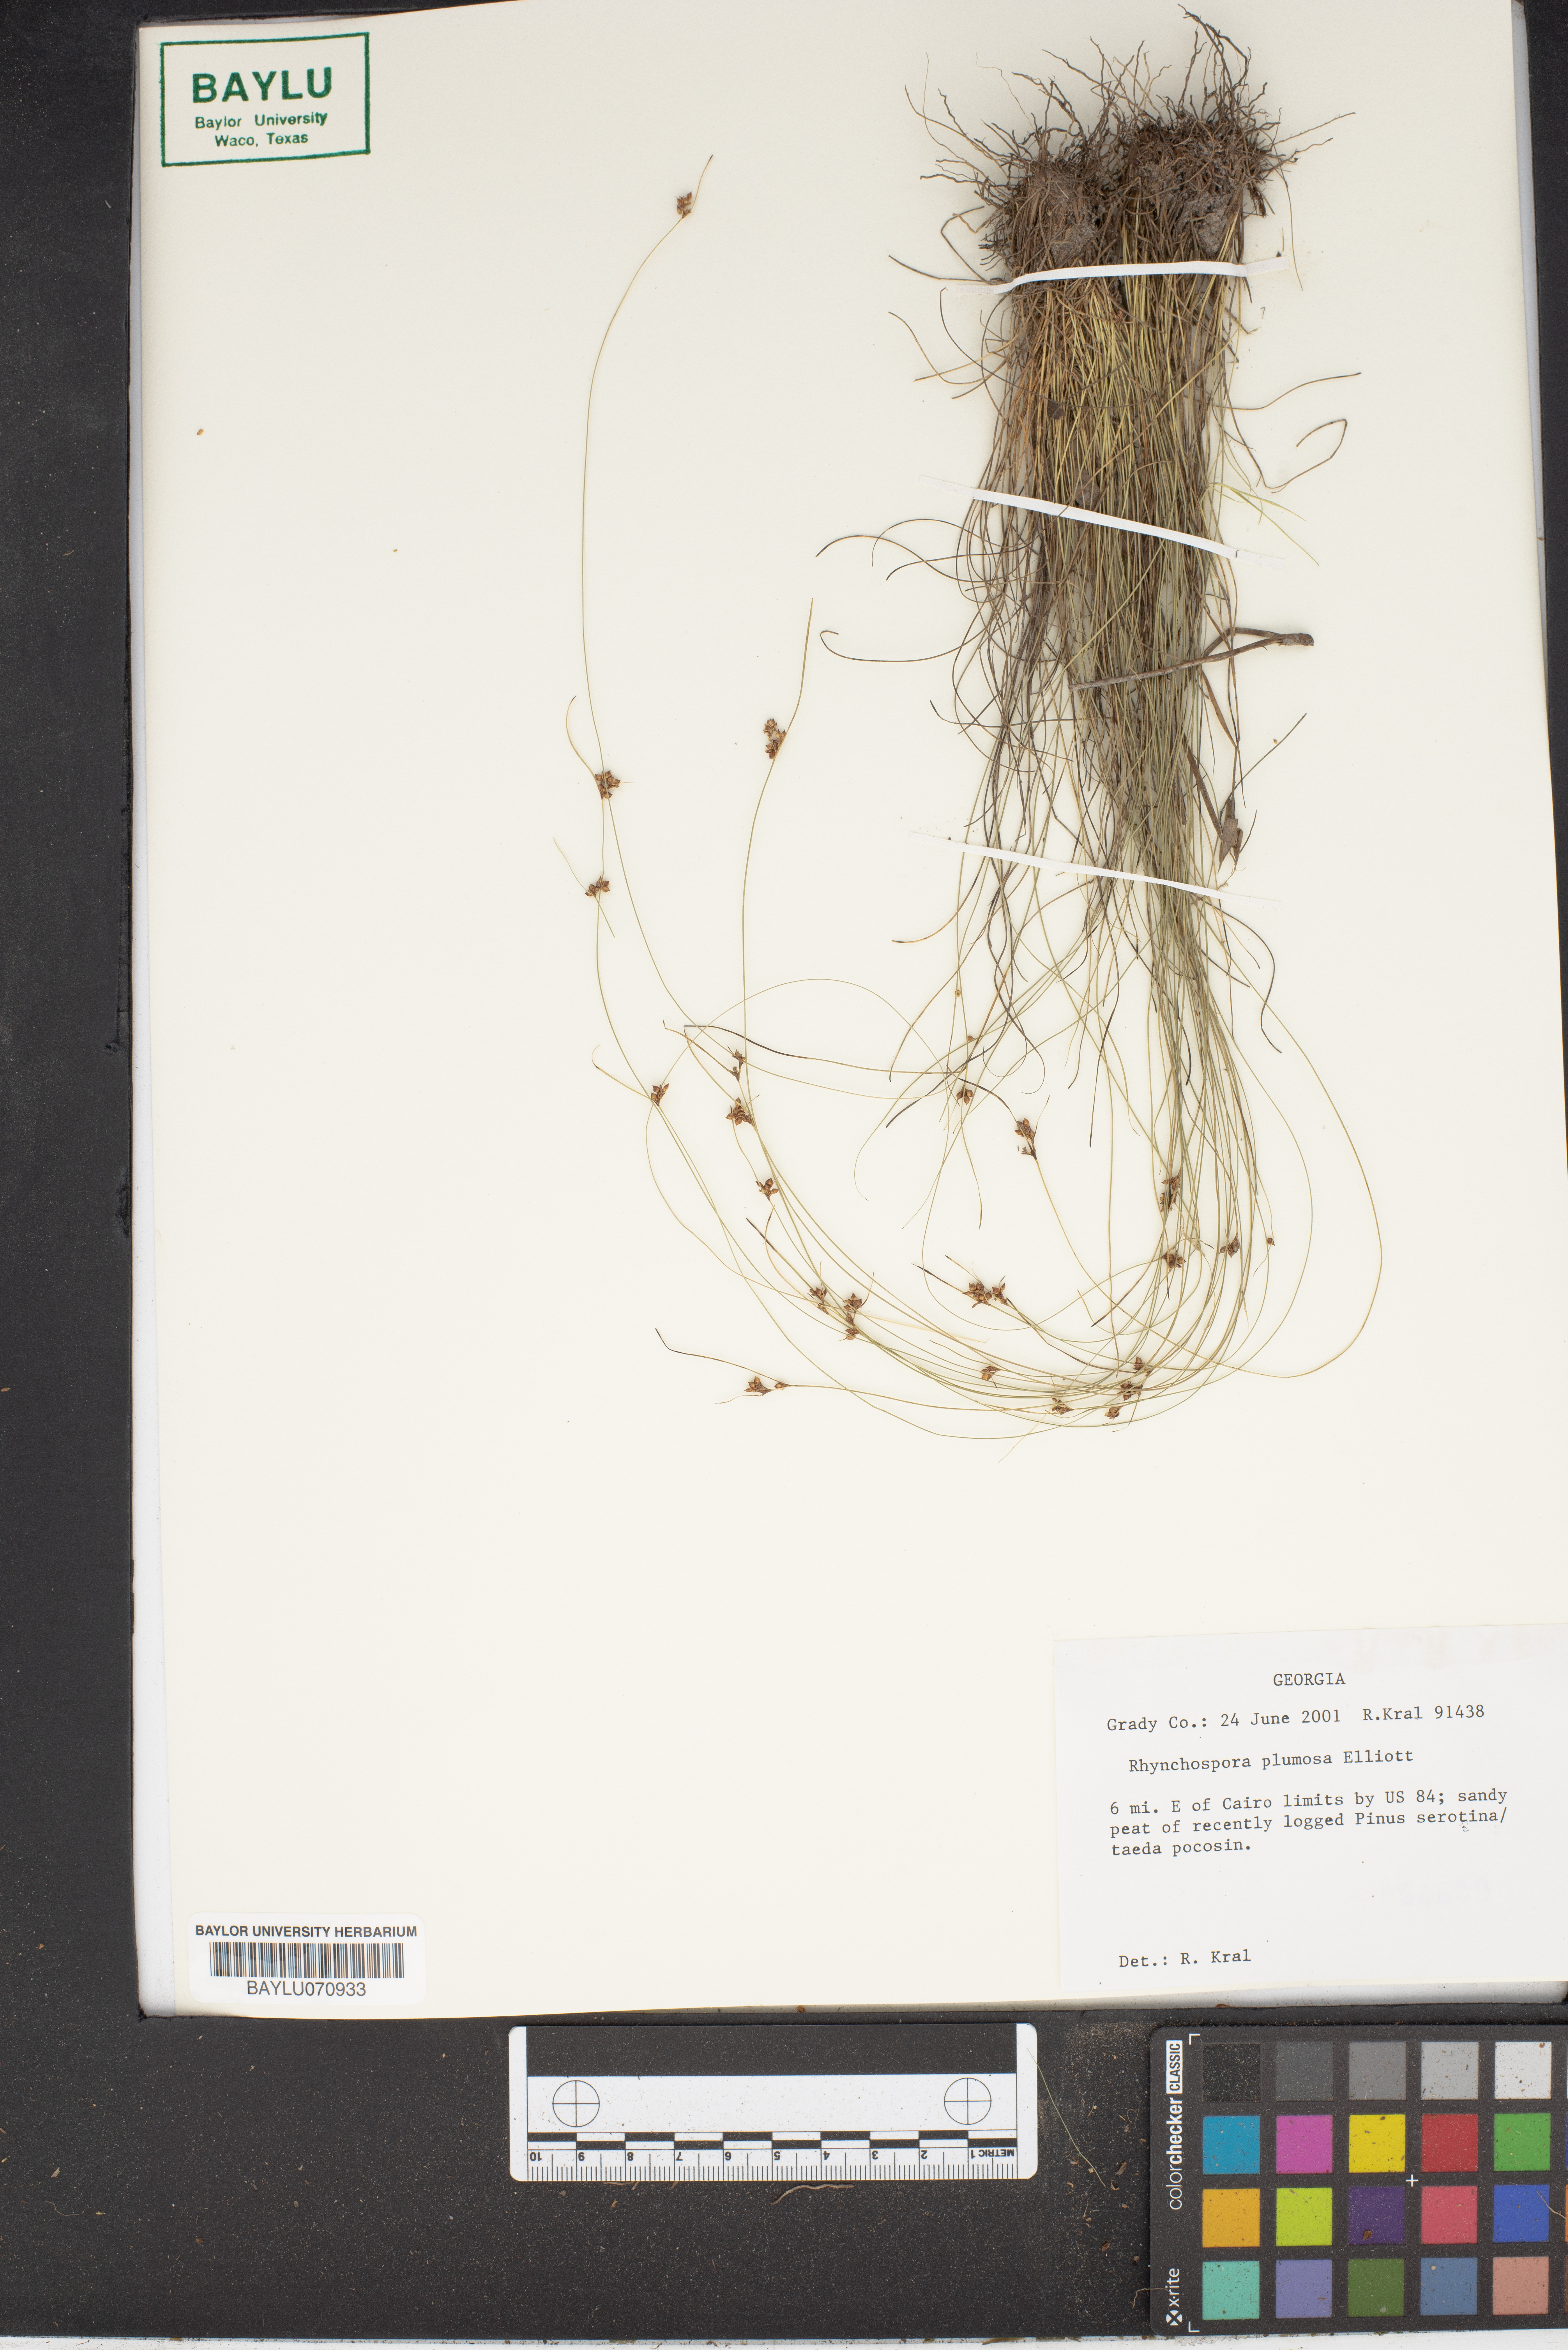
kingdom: Plantae
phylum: Tracheophyta
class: Liliopsida
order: Poales
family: Cyperaceae
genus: Rhynchospora
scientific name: Rhynchospora plumosa
